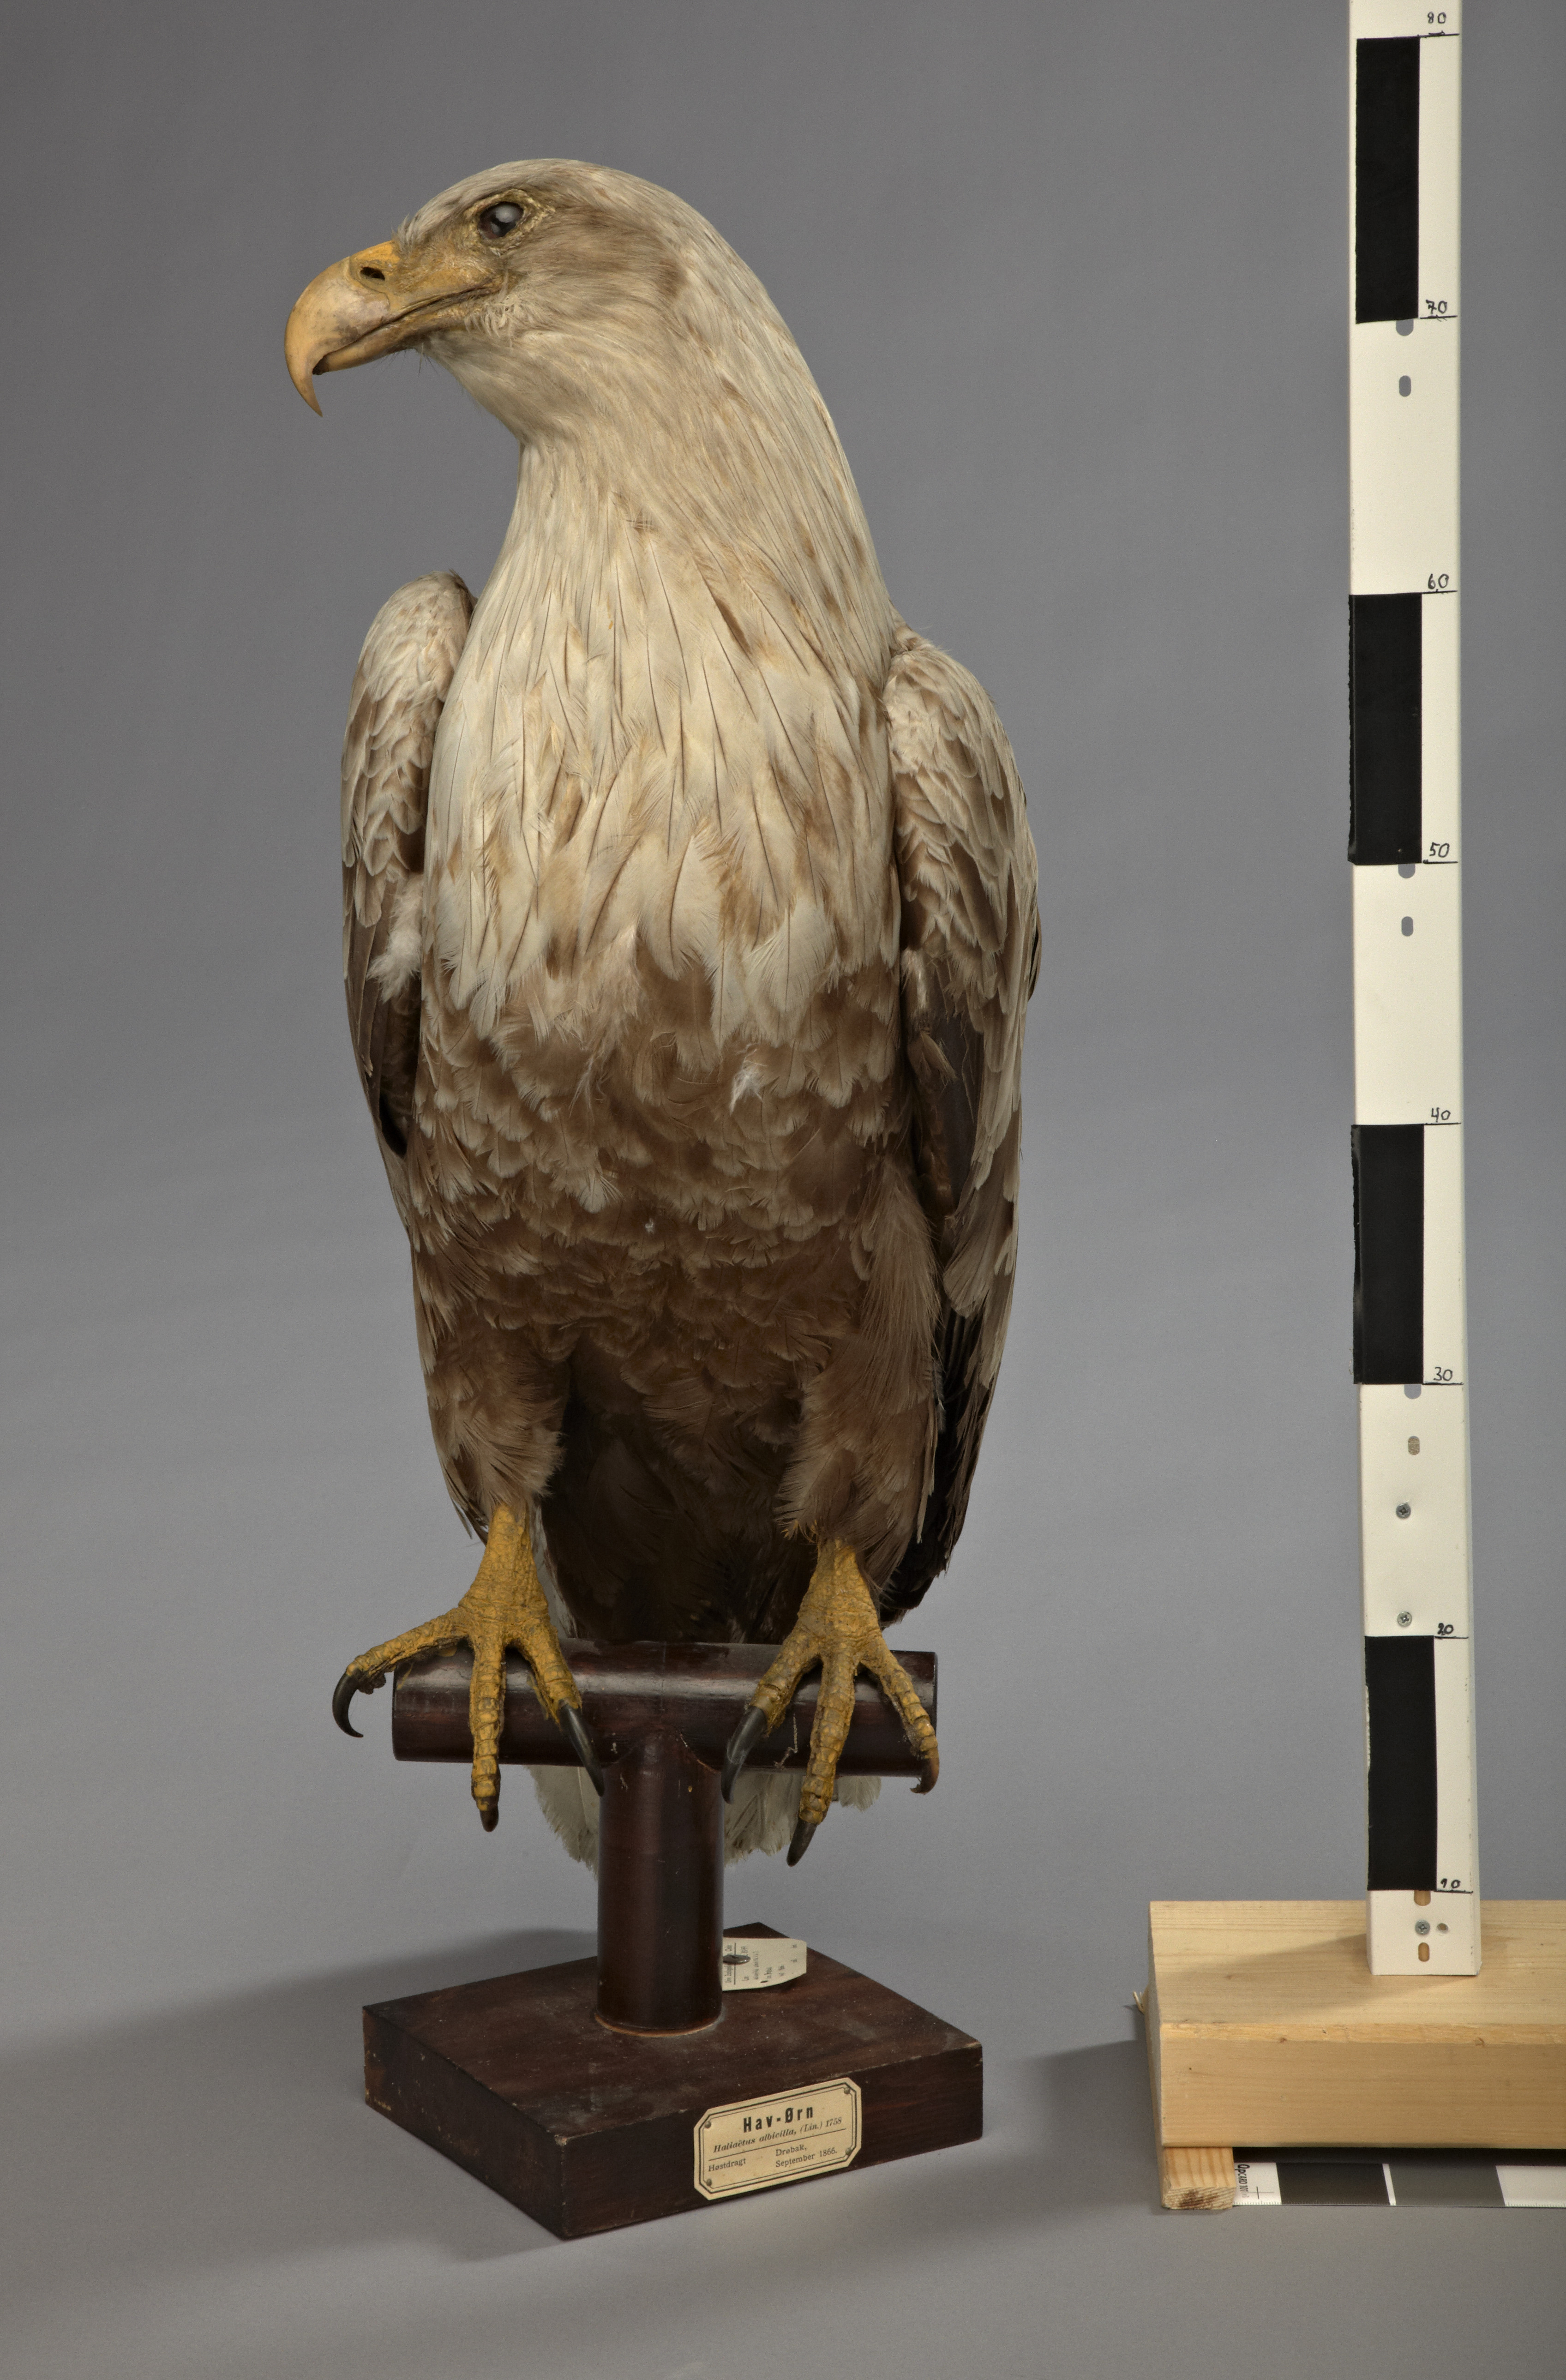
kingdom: Animalia
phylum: Chordata
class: Aves
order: Accipitriformes
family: Accipitridae
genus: Haliaeetus
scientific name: Haliaeetus albicilla
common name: White-tailed eagle
